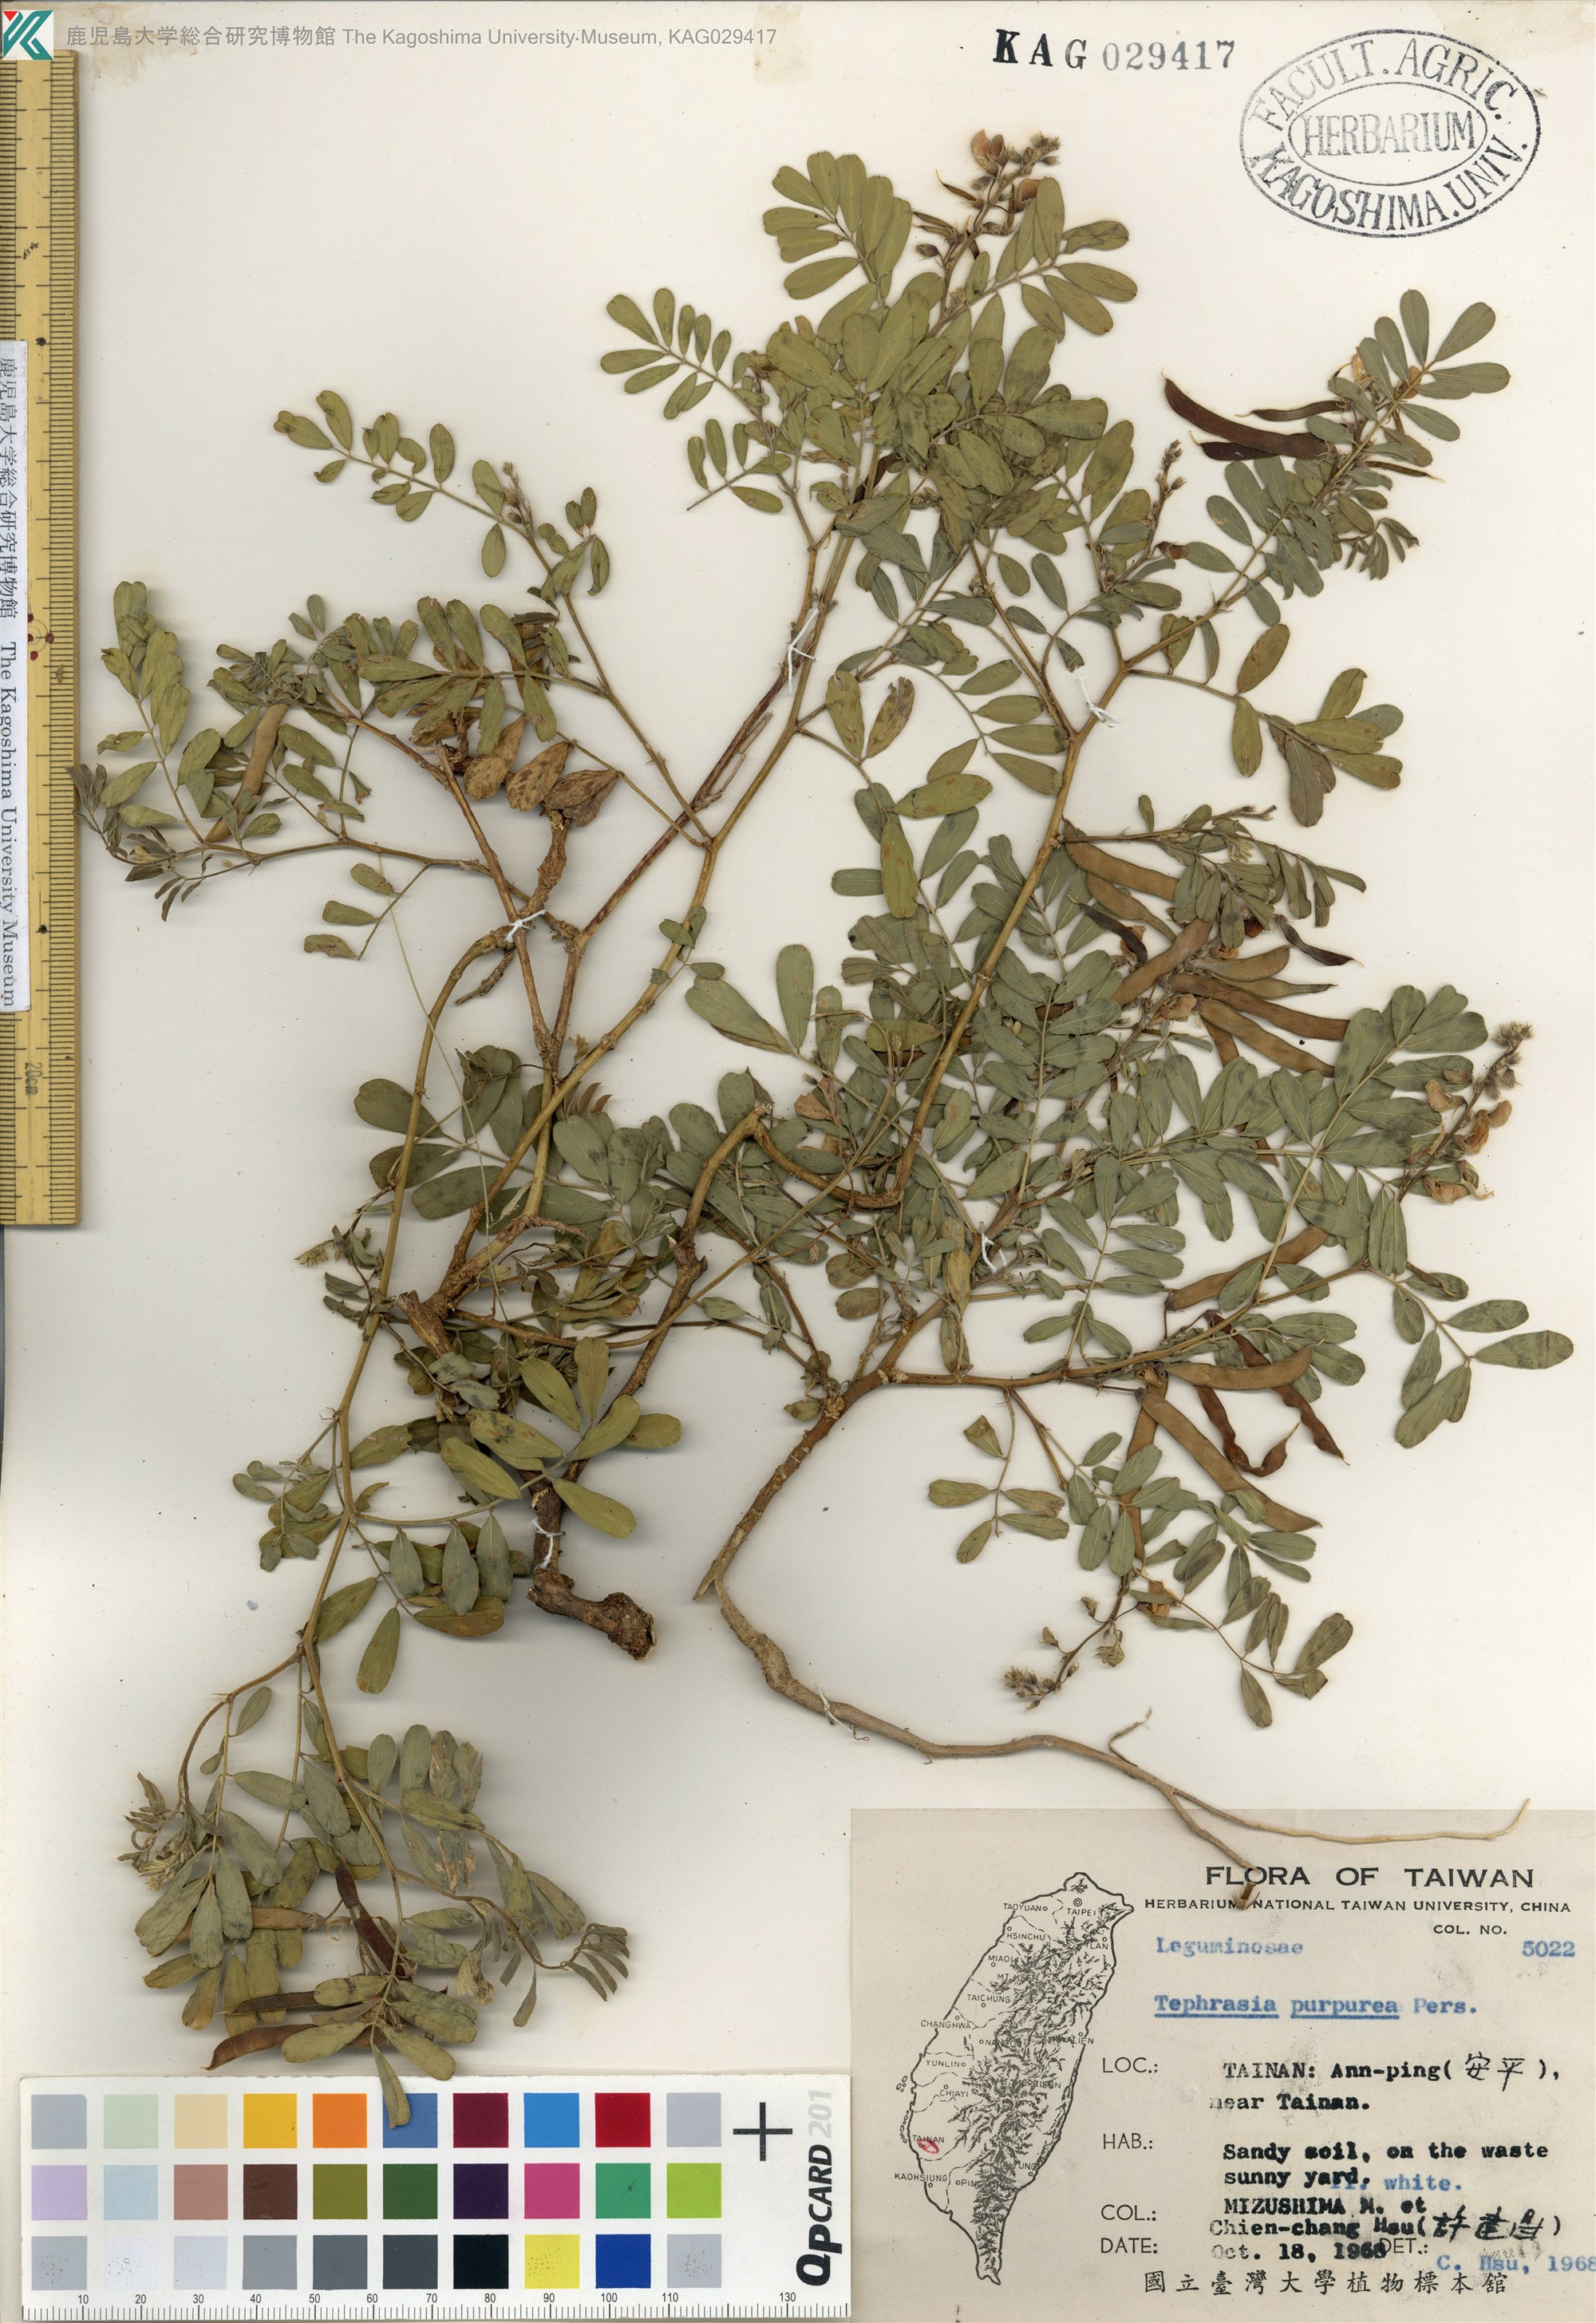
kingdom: Plantae
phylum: Tracheophyta
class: Magnoliopsida
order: Fabales
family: Fabaceae
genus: Tephrosia
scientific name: Tephrosia purpurea
